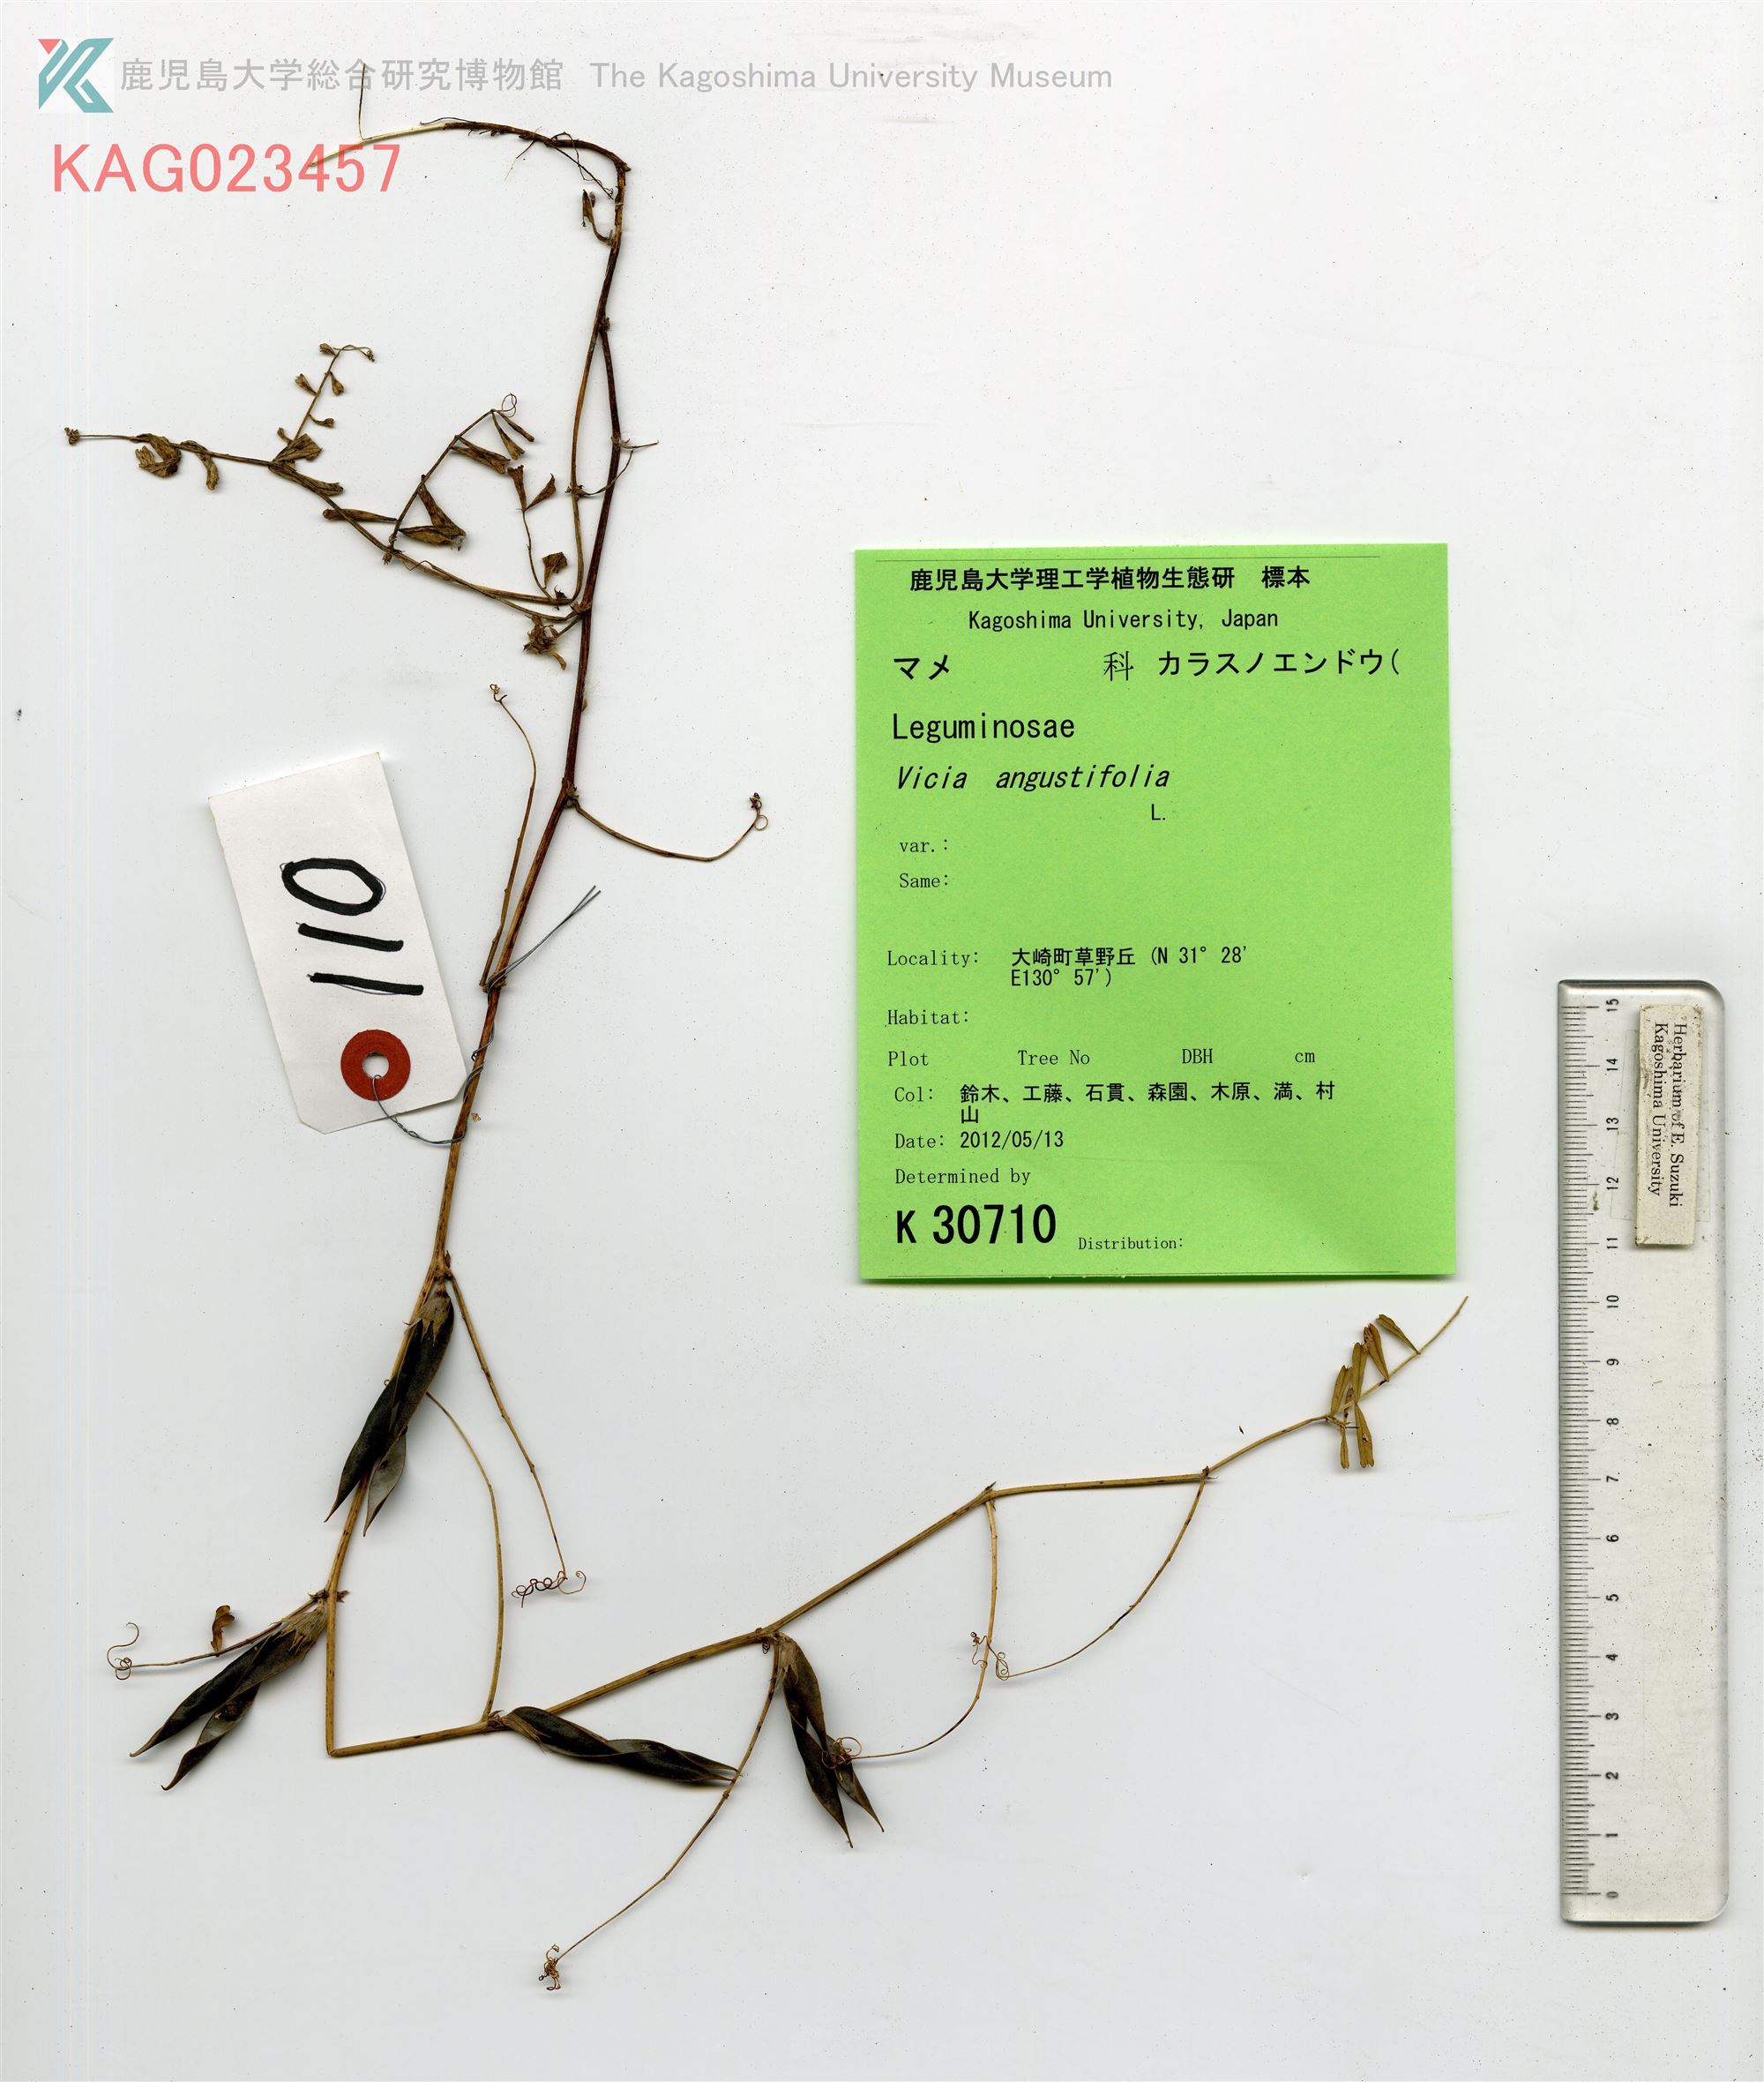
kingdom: Plantae
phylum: Tracheophyta
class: Magnoliopsida
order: Fabales
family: Fabaceae
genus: Vicia
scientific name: Vicia sativa
